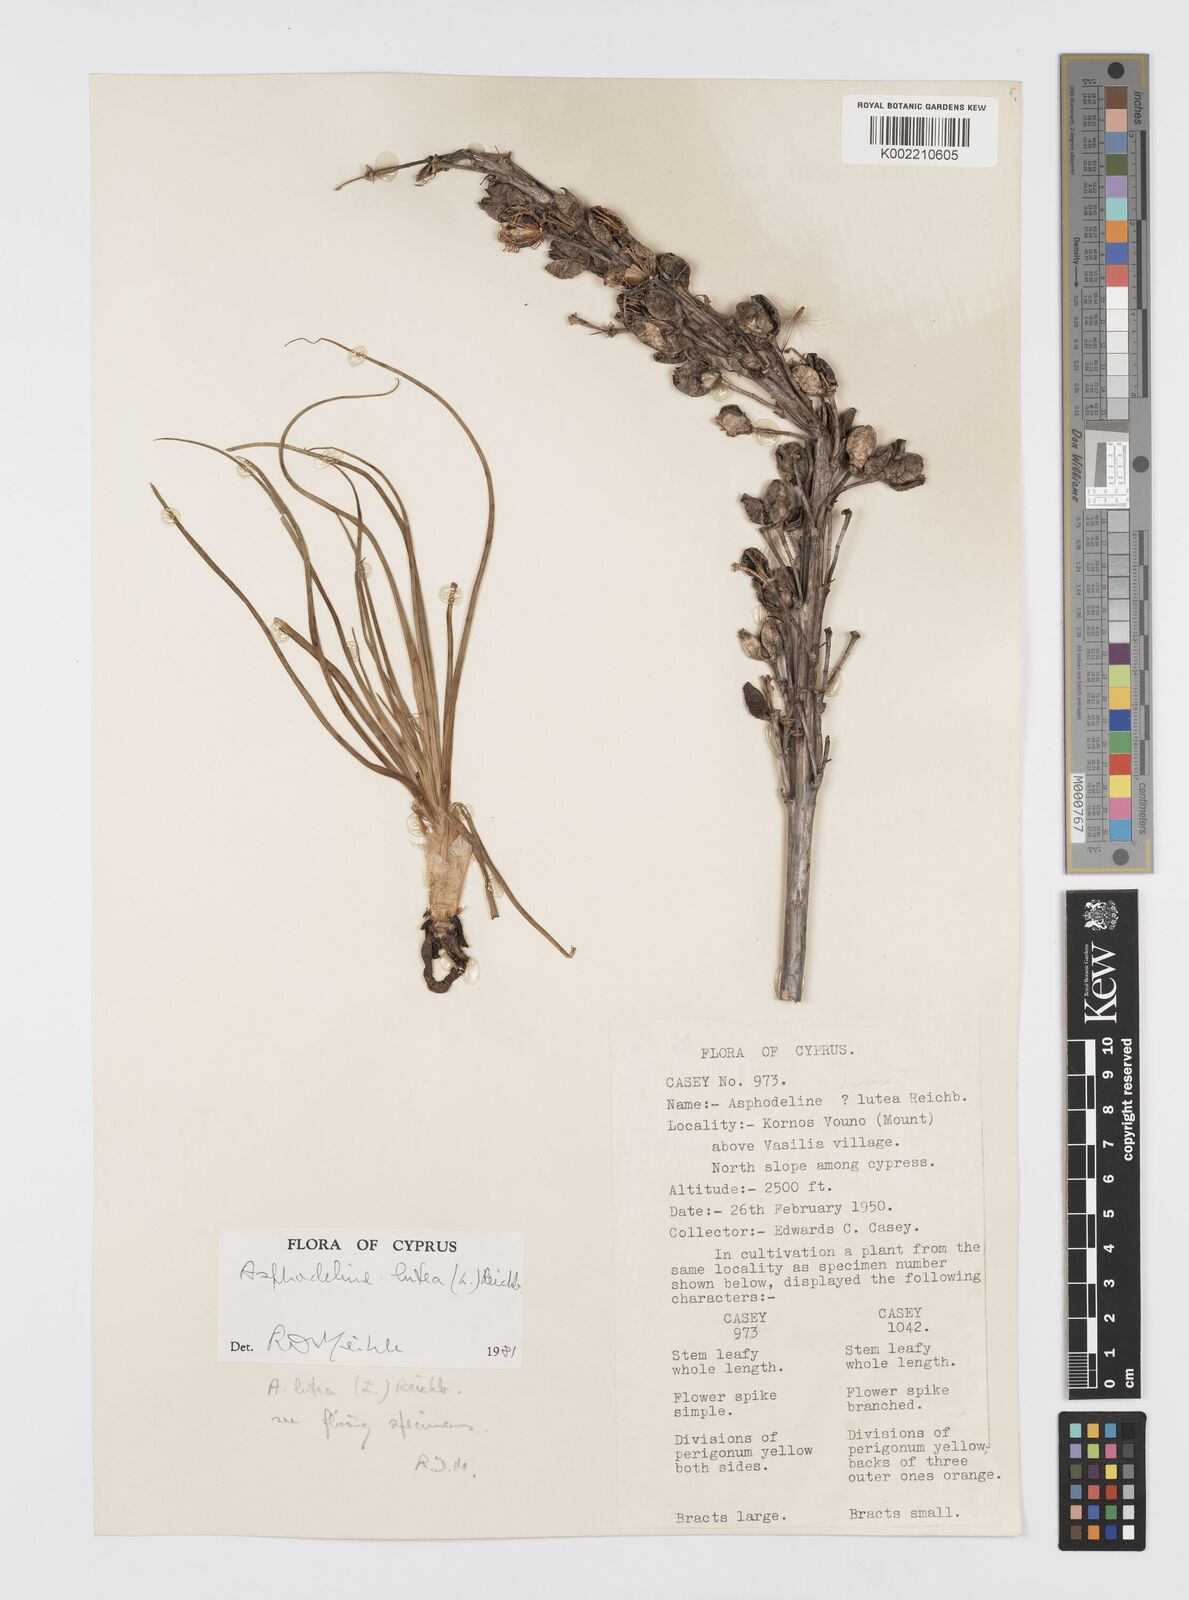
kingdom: Plantae
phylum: Tracheophyta
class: Liliopsida
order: Asparagales
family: Asphodelaceae
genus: Asphodeline
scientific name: Asphodeline lutea
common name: Yellow asphodel
